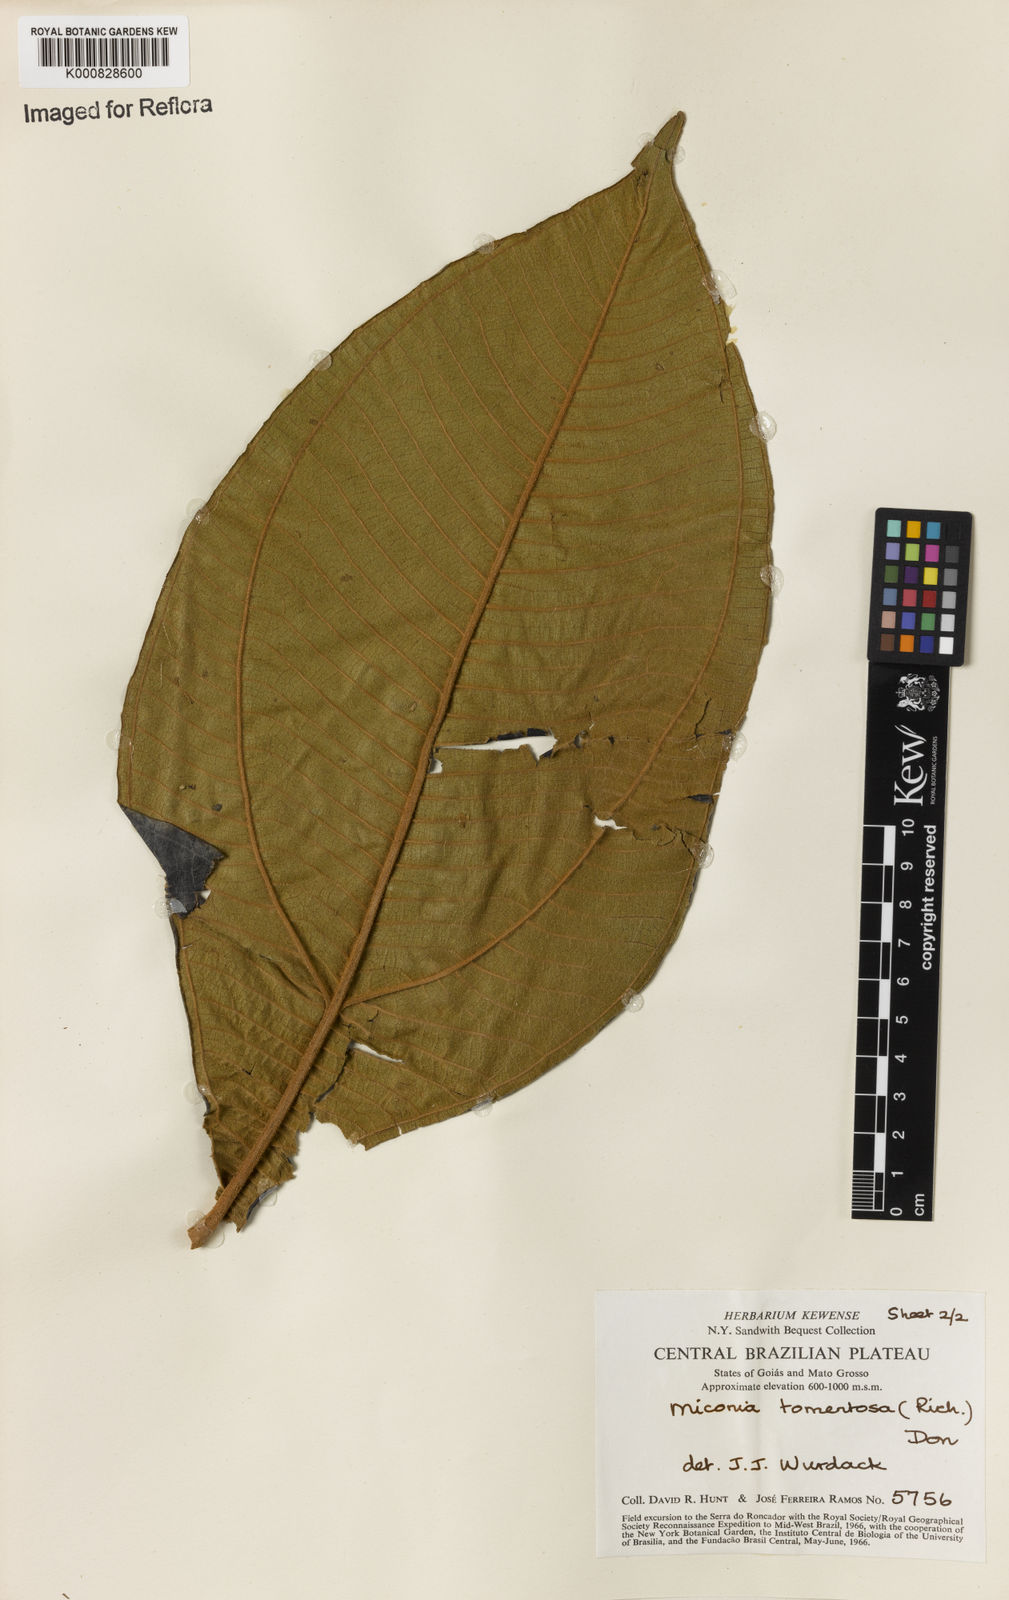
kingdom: Plantae
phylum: Tracheophyta
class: Magnoliopsida
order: Myrtales
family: Melastomataceae
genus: Miconia
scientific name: Miconia tomentosa
